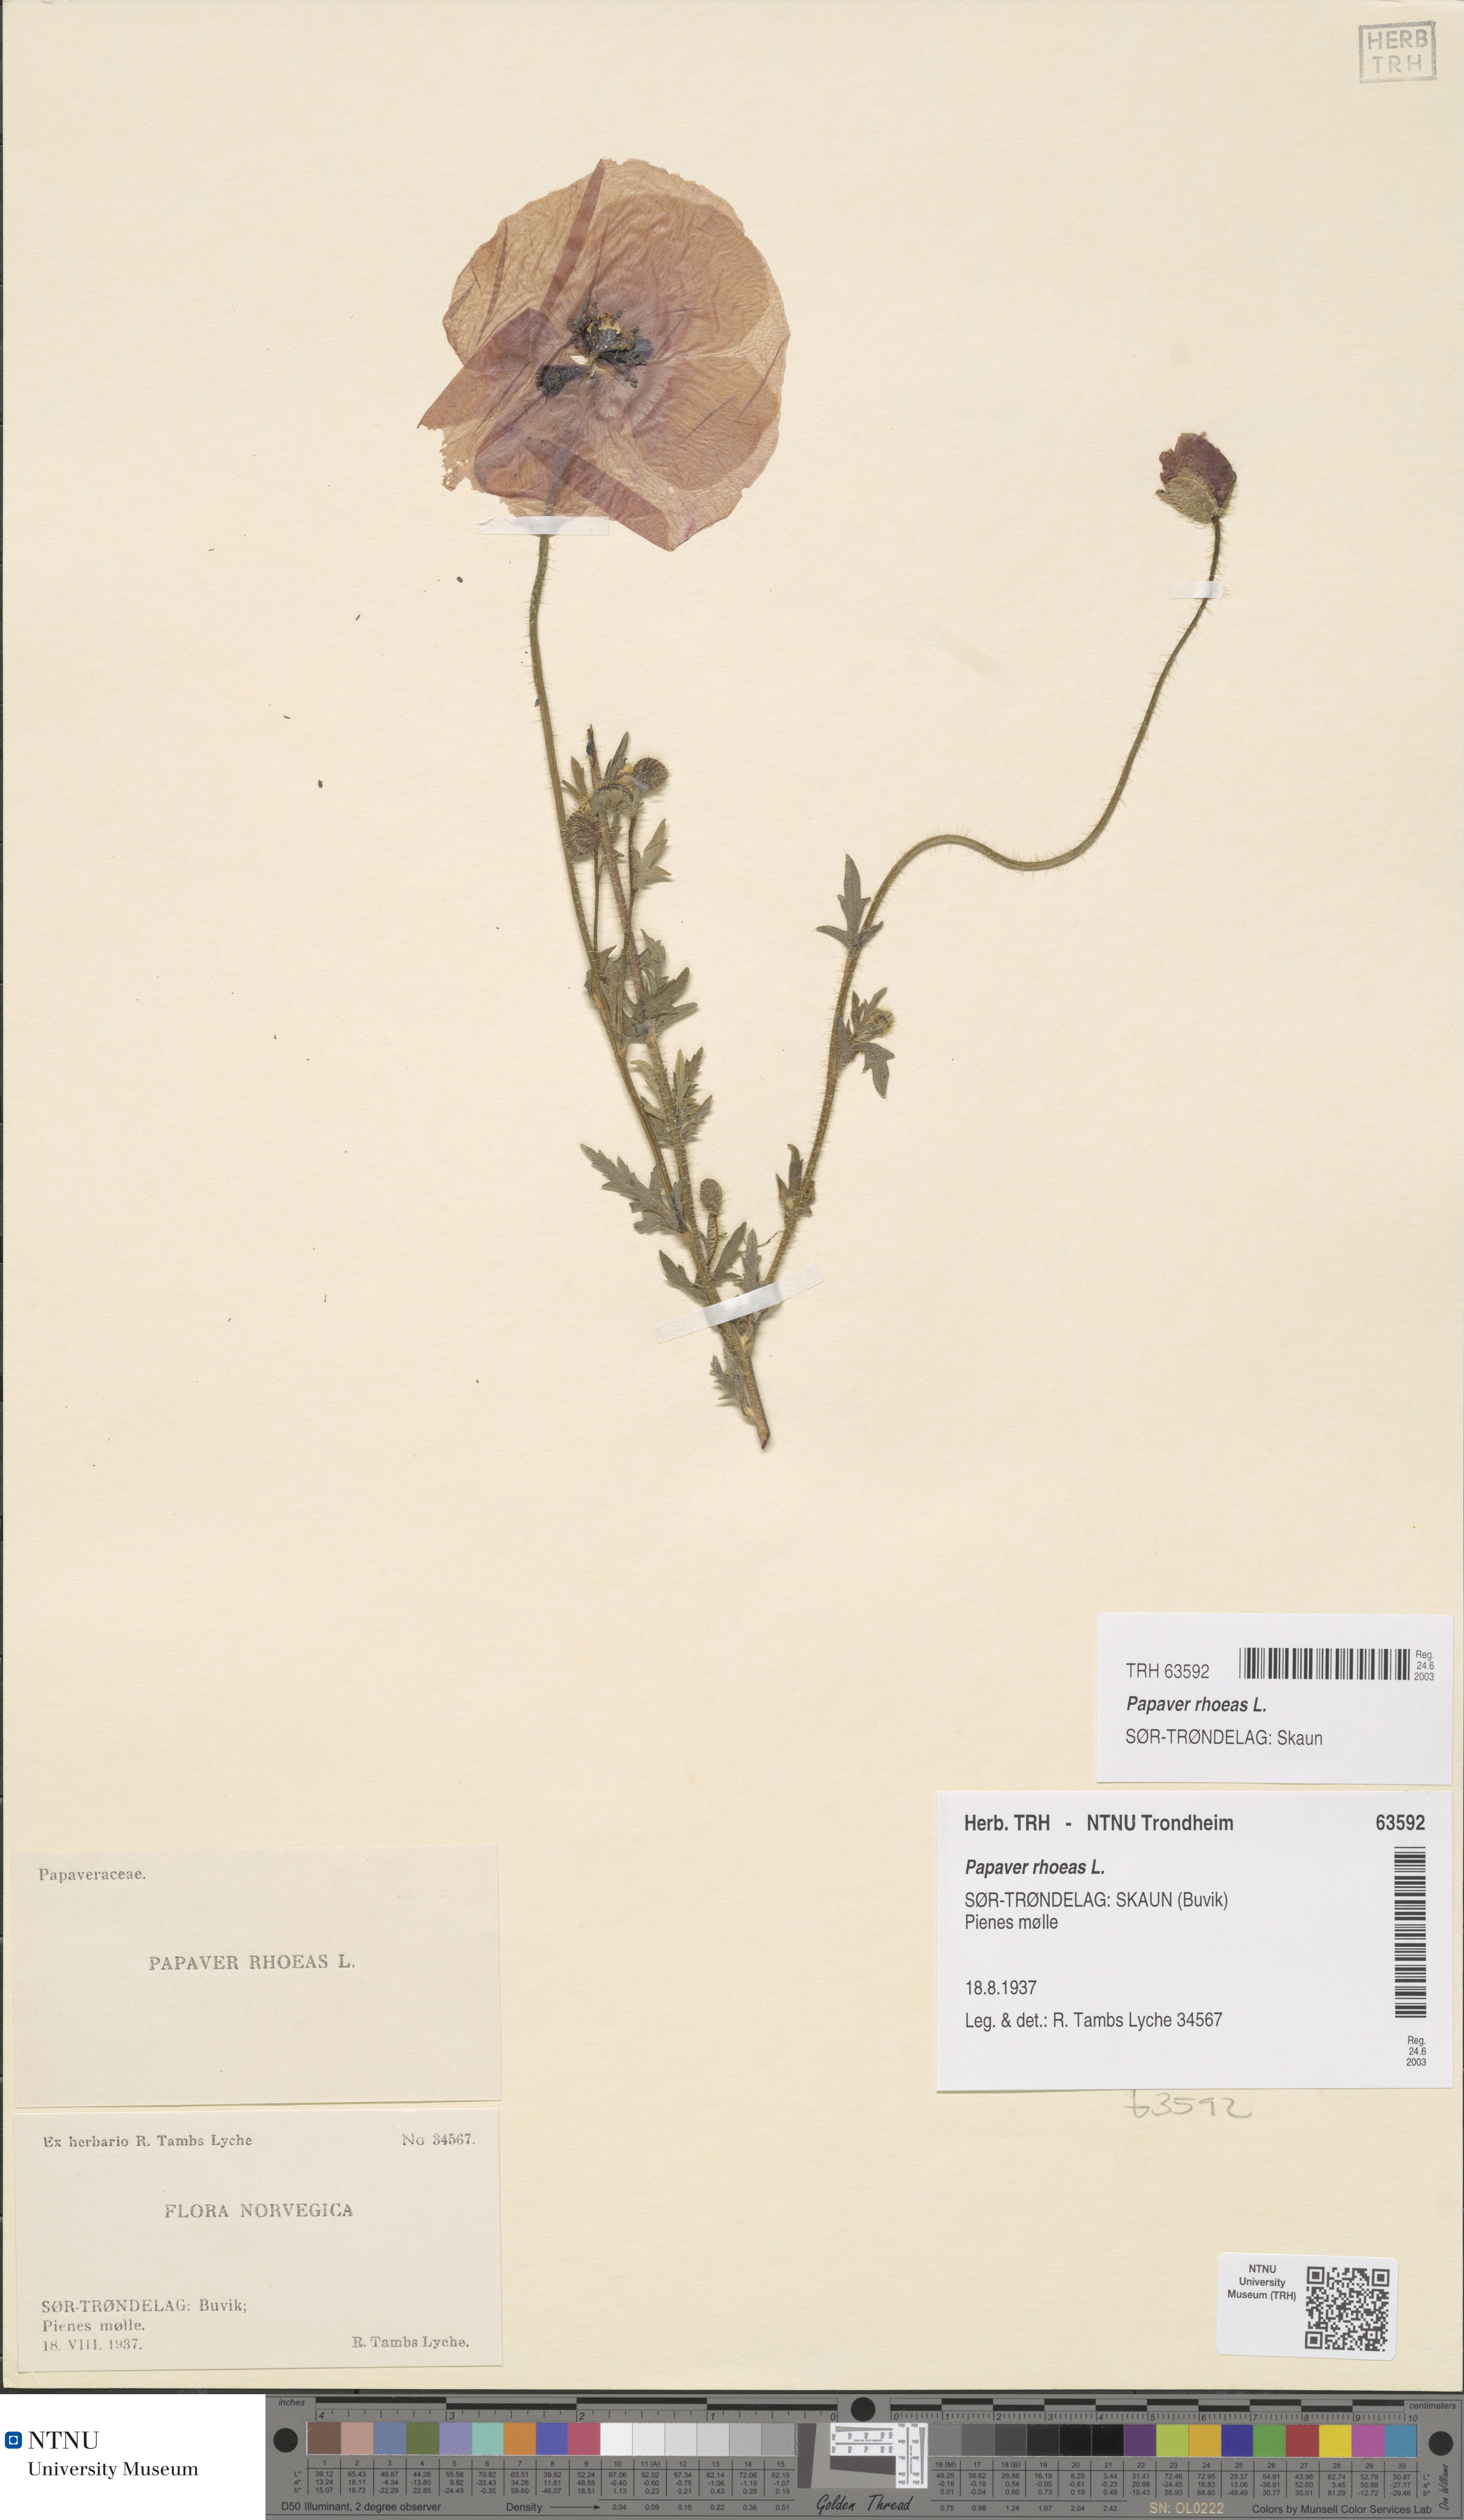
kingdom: Plantae
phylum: Tracheophyta
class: Magnoliopsida
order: Ranunculales
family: Papaveraceae
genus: Papaver
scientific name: Papaver rhoeas
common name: Corn poppy
